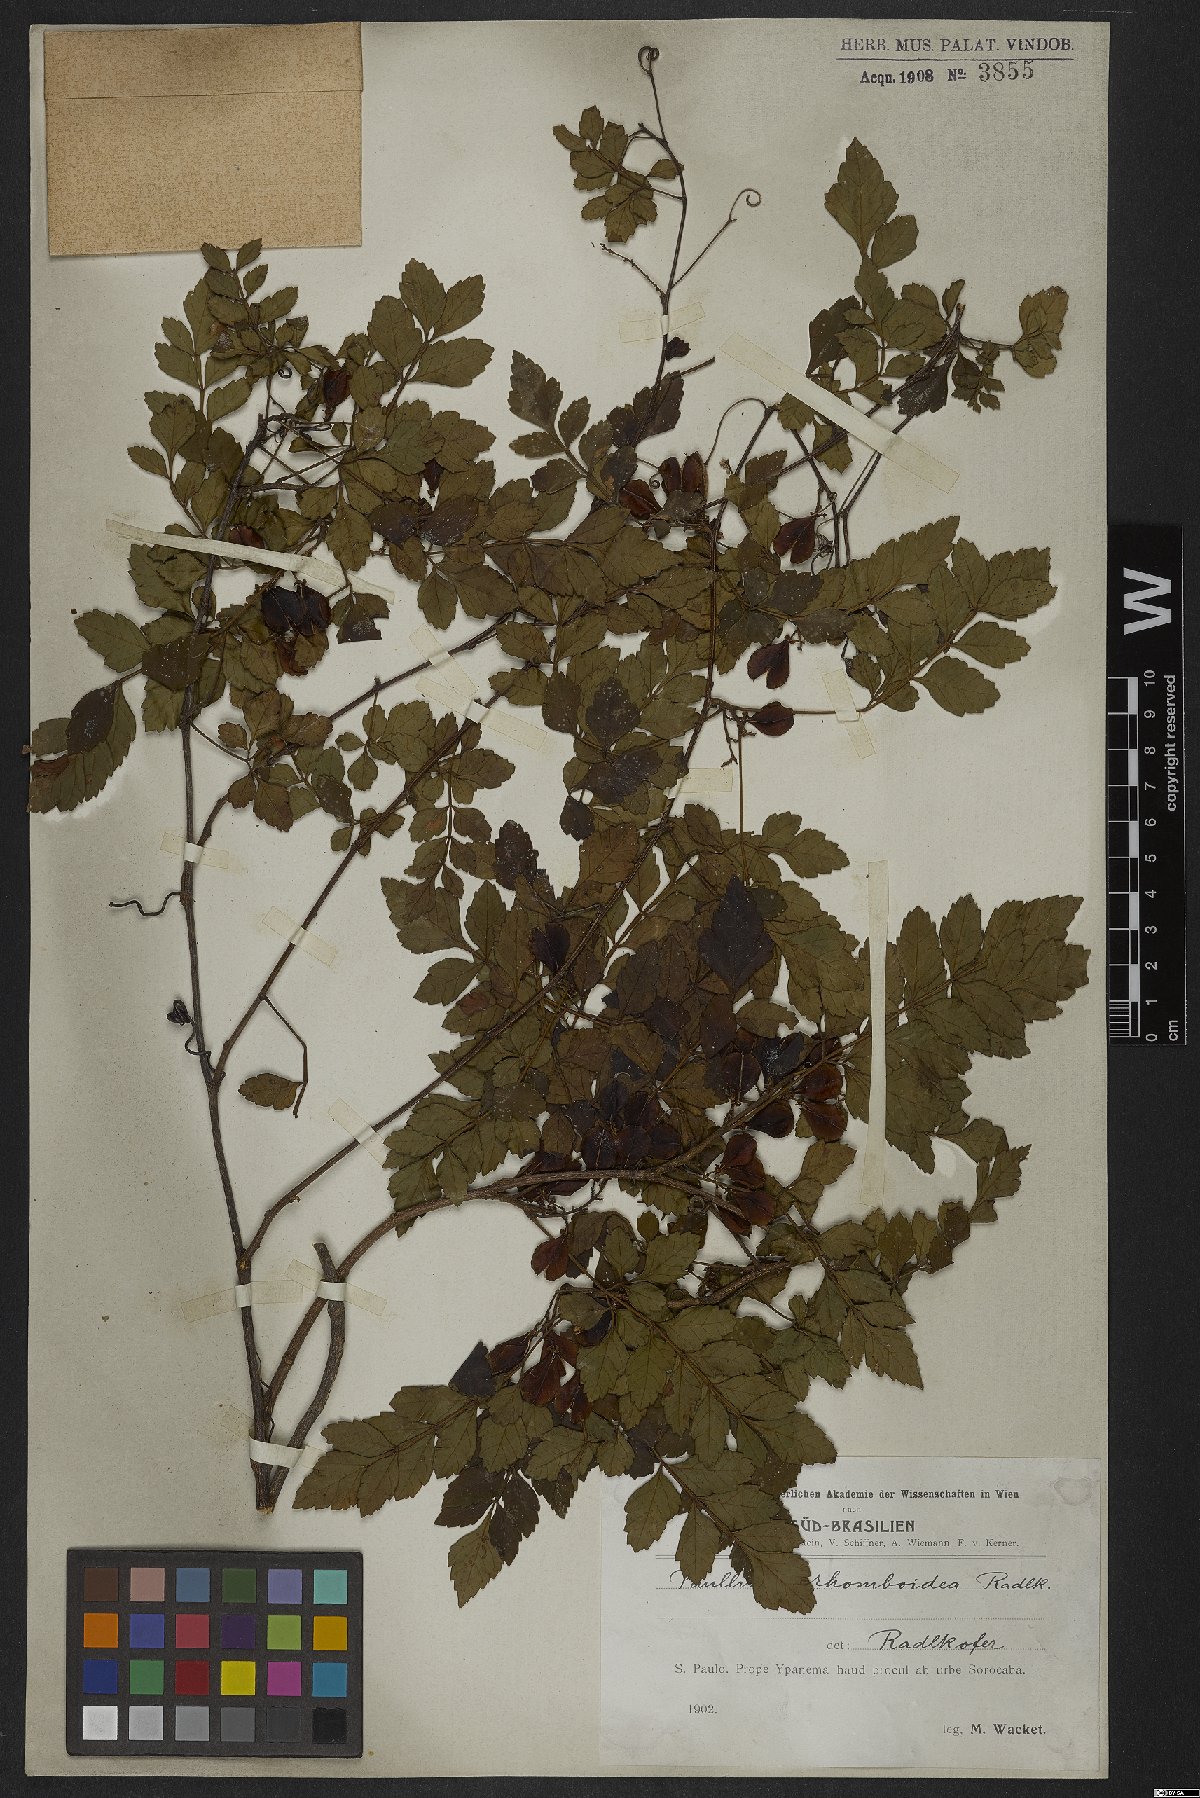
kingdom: Plantae
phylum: Tracheophyta
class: Magnoliopsida
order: Sapindales
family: Sapindaceae
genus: Paullinia
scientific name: Paullinia rhomboidea
